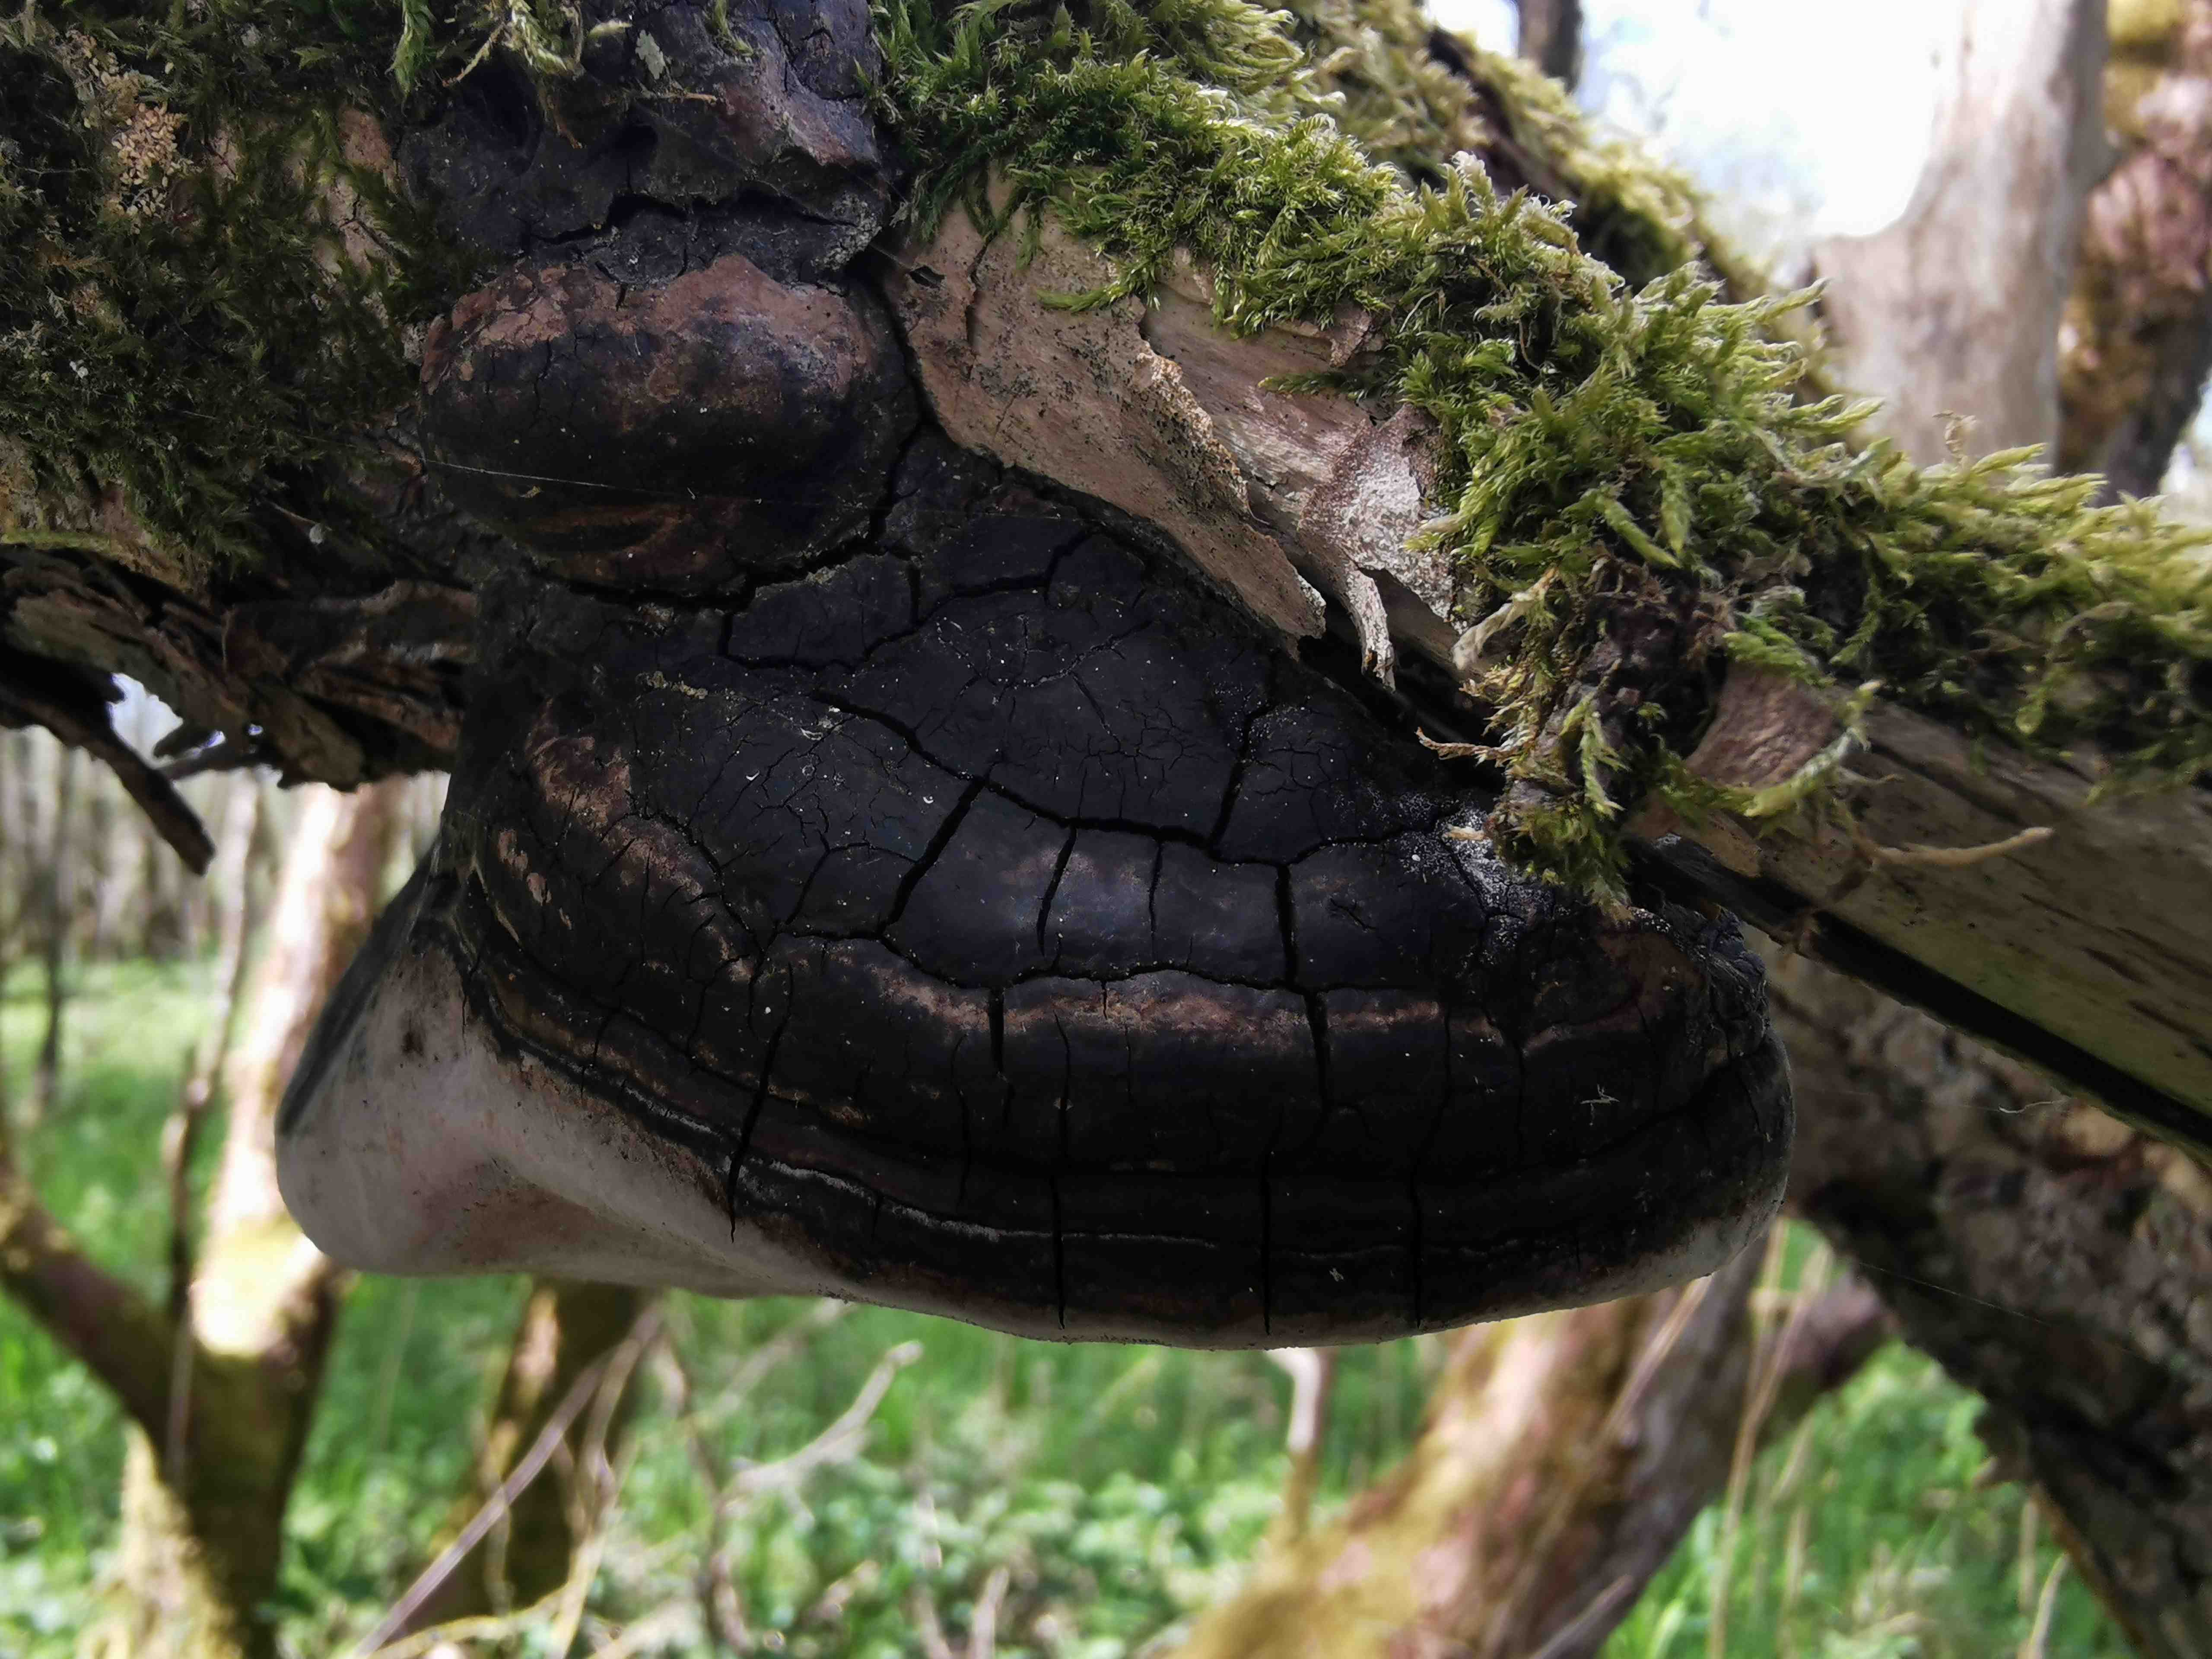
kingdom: Fungi
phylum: Basidiomycota
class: Agaricomycetes
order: Hymenochaetales
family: Hymenochaetaceae
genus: Phellinus
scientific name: Phellinus igniarius
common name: almindelig ildporesvamp
